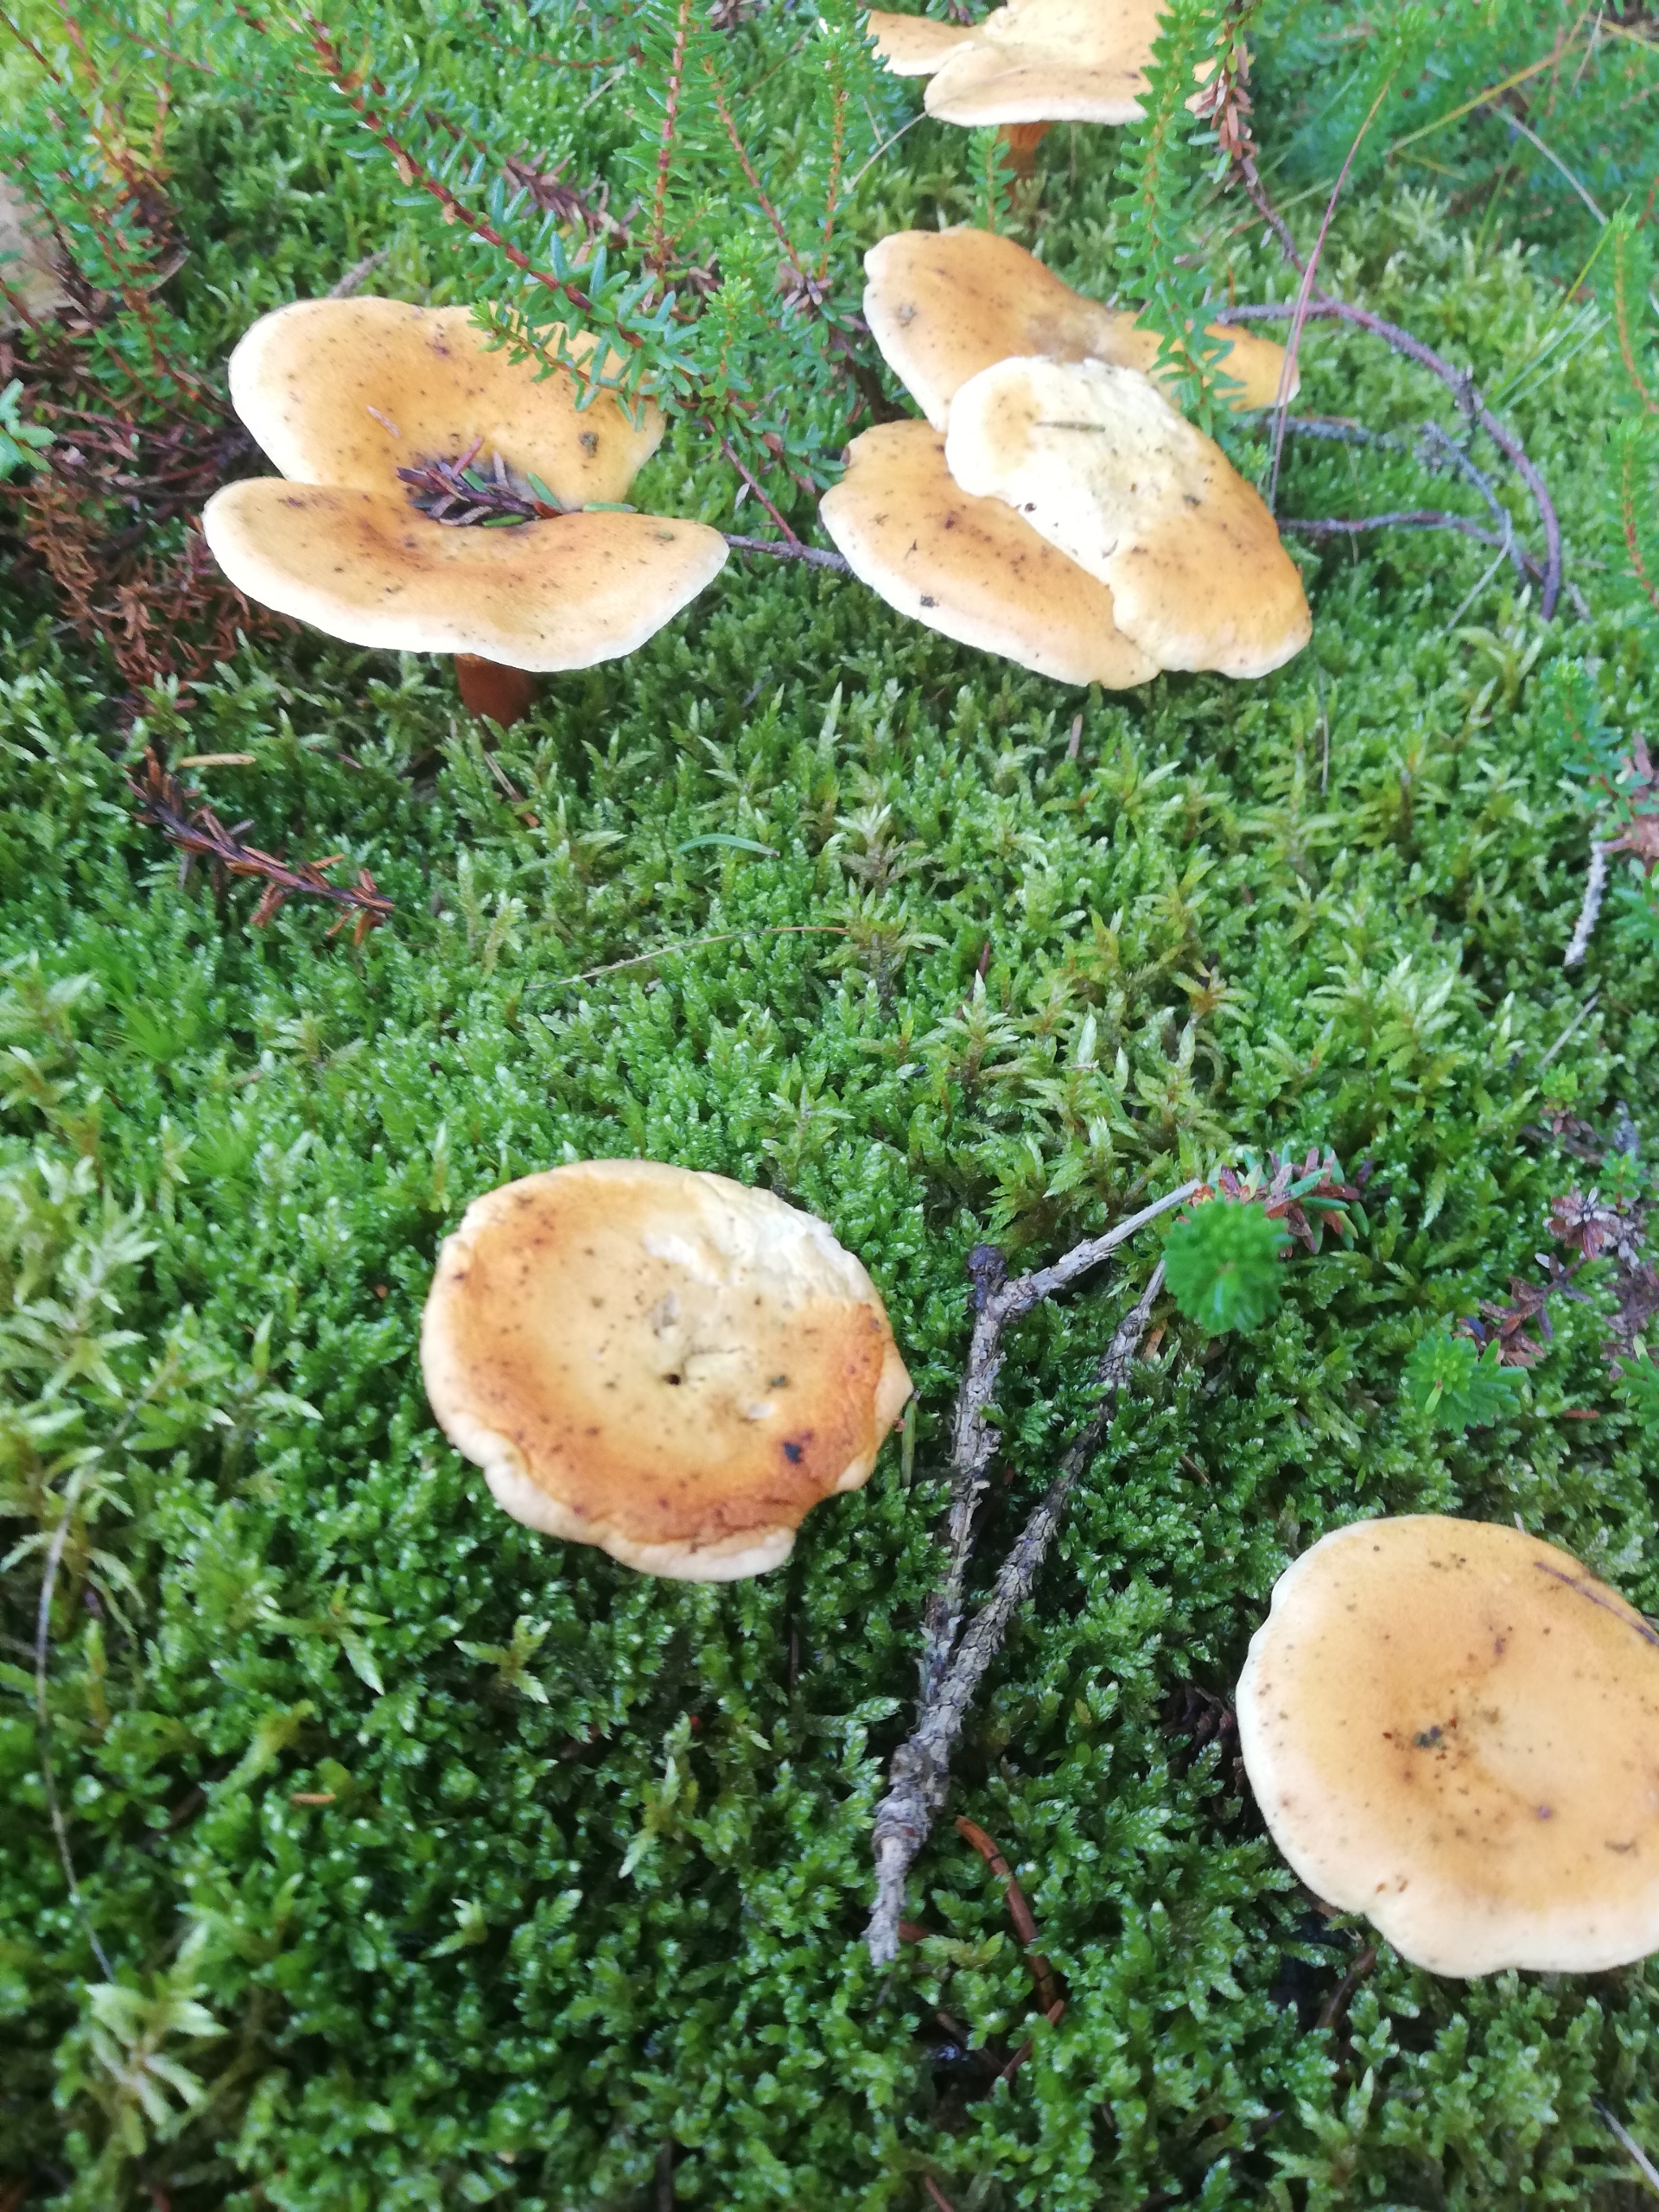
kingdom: Fungi
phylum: Basidiomycota
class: Agaricomycetes
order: Boletales
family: Hygrophoropsidaceae
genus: Hygrophoropsis
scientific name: Hygrophoropsis aurantiaca
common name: Almindelig orangekantarel
